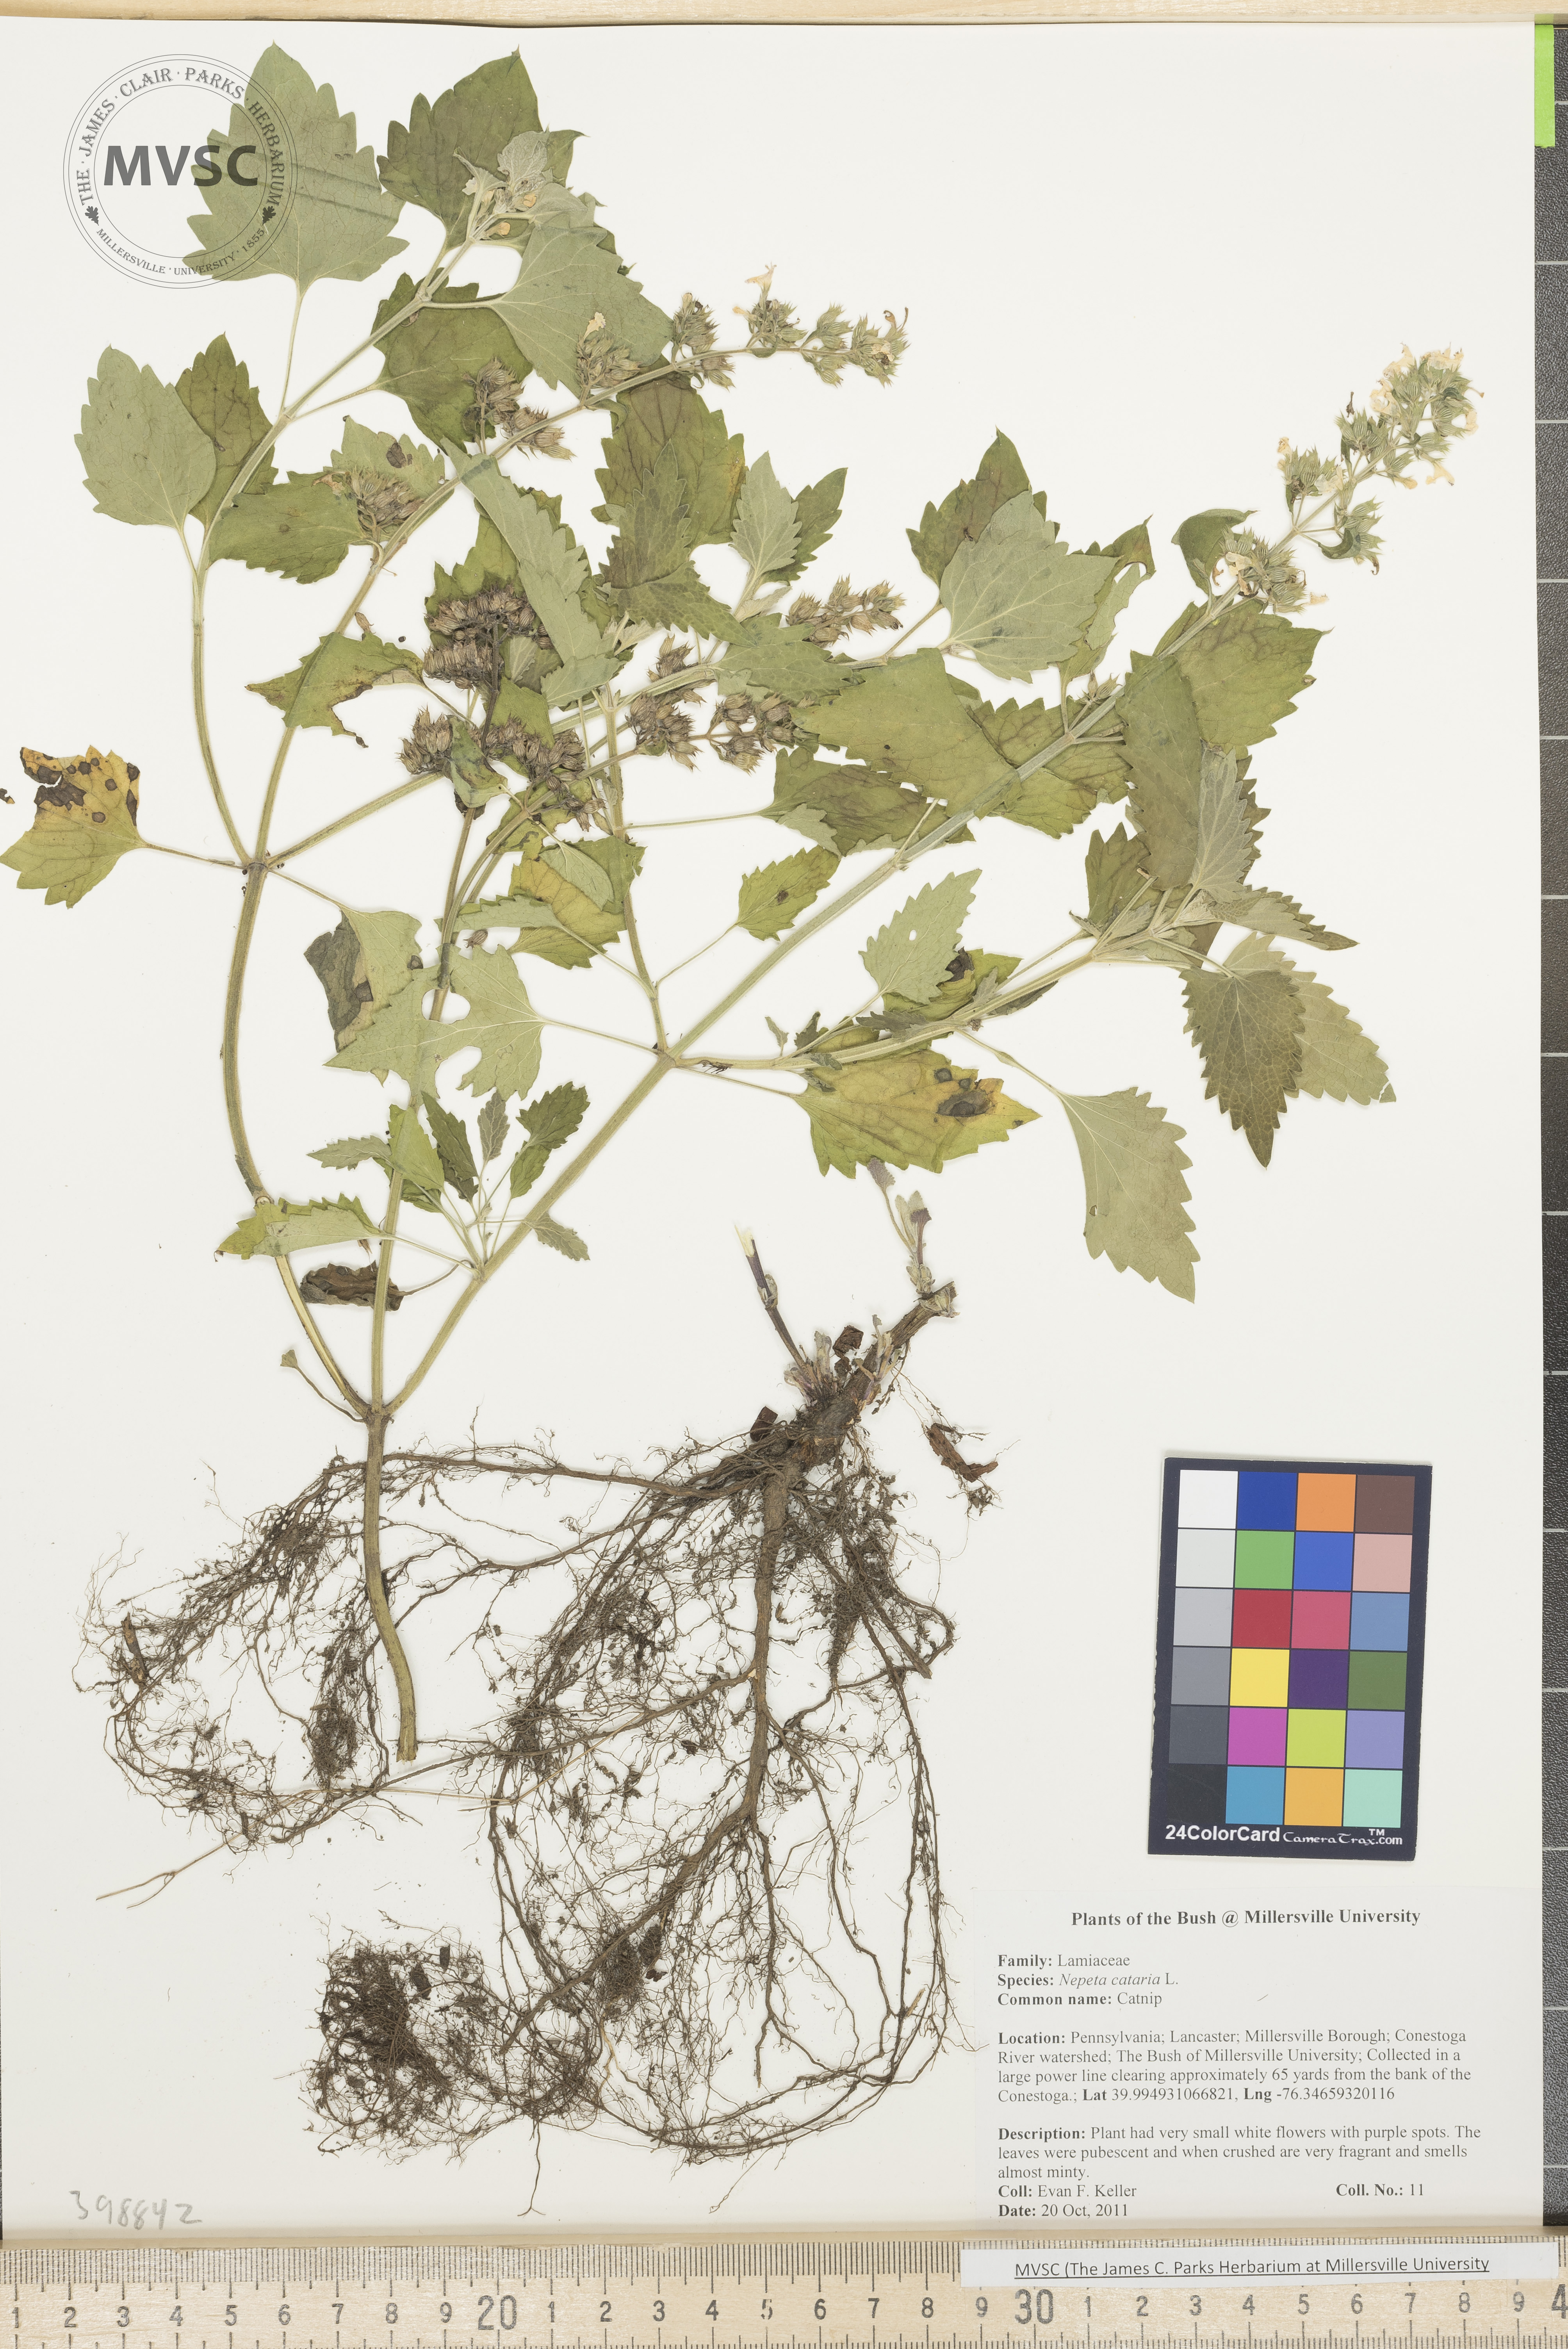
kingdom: Plantae
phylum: Tracheophyta
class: Magnoliopsida
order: Lamiales
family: Lamiaceae
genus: Nepeta
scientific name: Nepeta cataria
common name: Catnip
